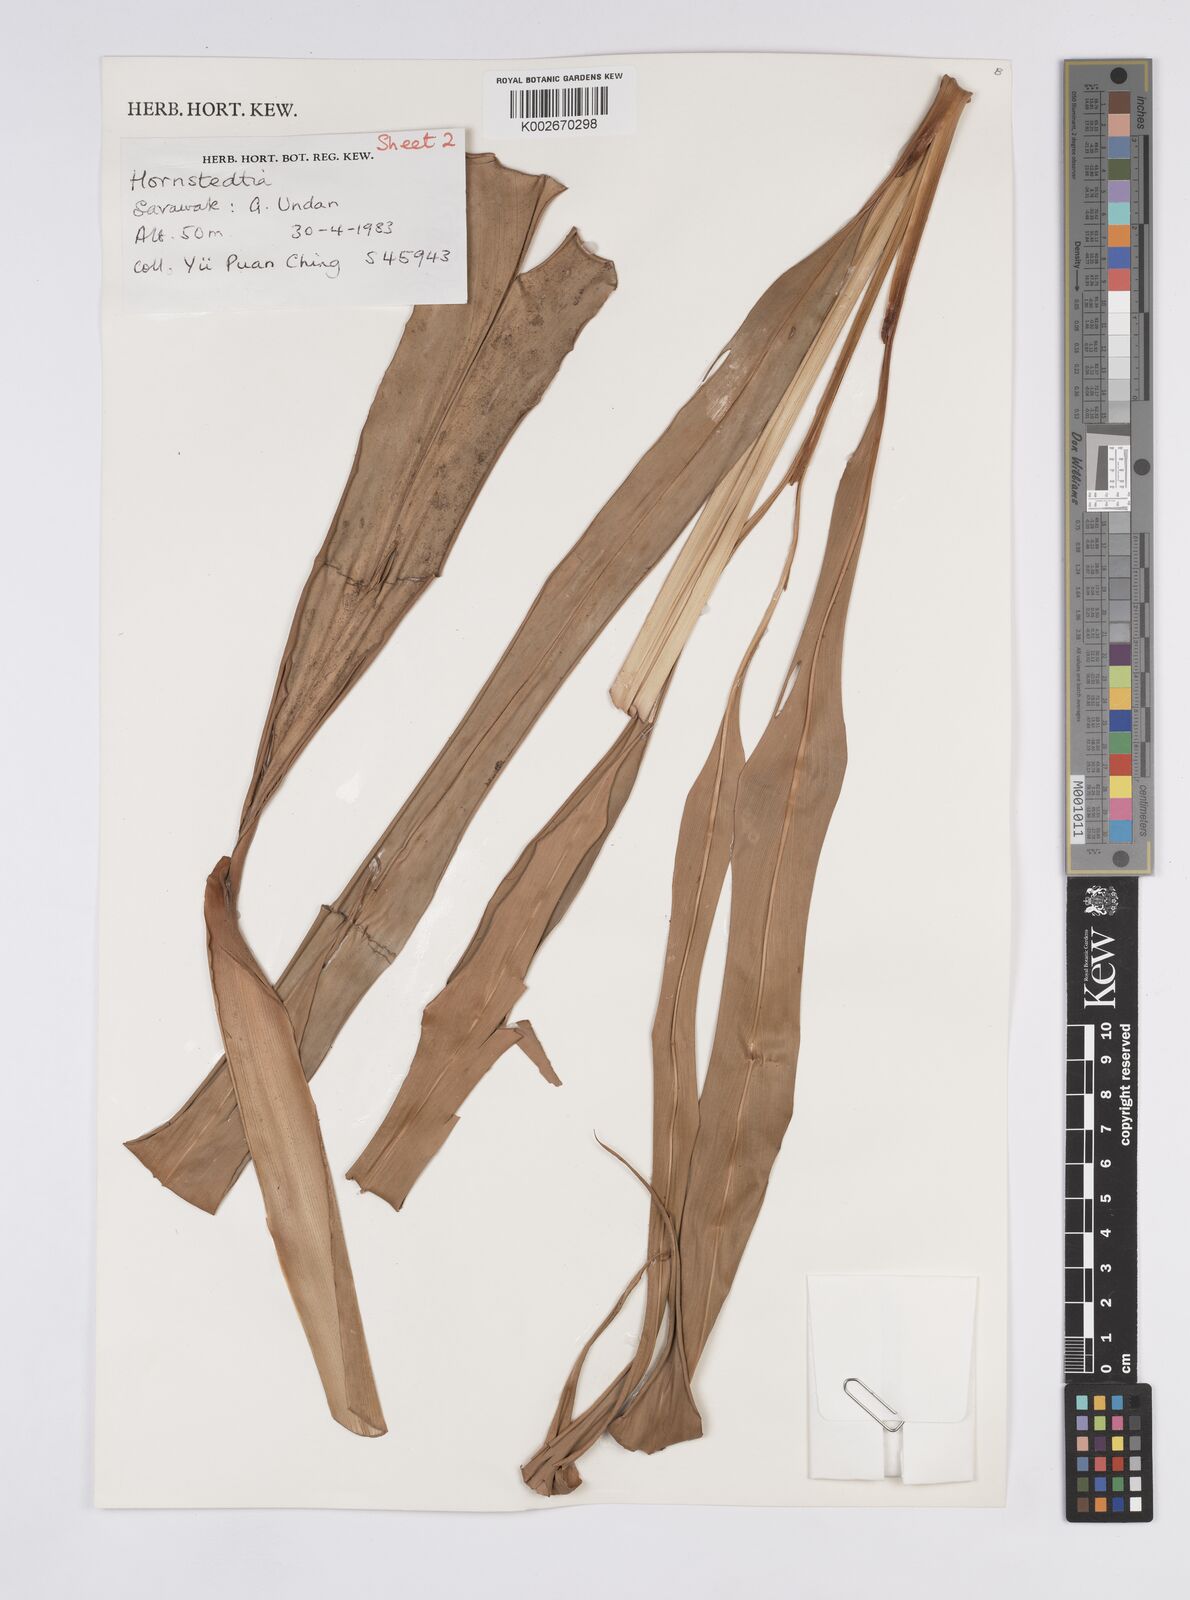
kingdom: Plantae
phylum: Tracheophyta
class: Liliopsida
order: Zingiberales
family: Zingiberaceae
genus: Hornstedtia
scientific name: Hornstedtia
